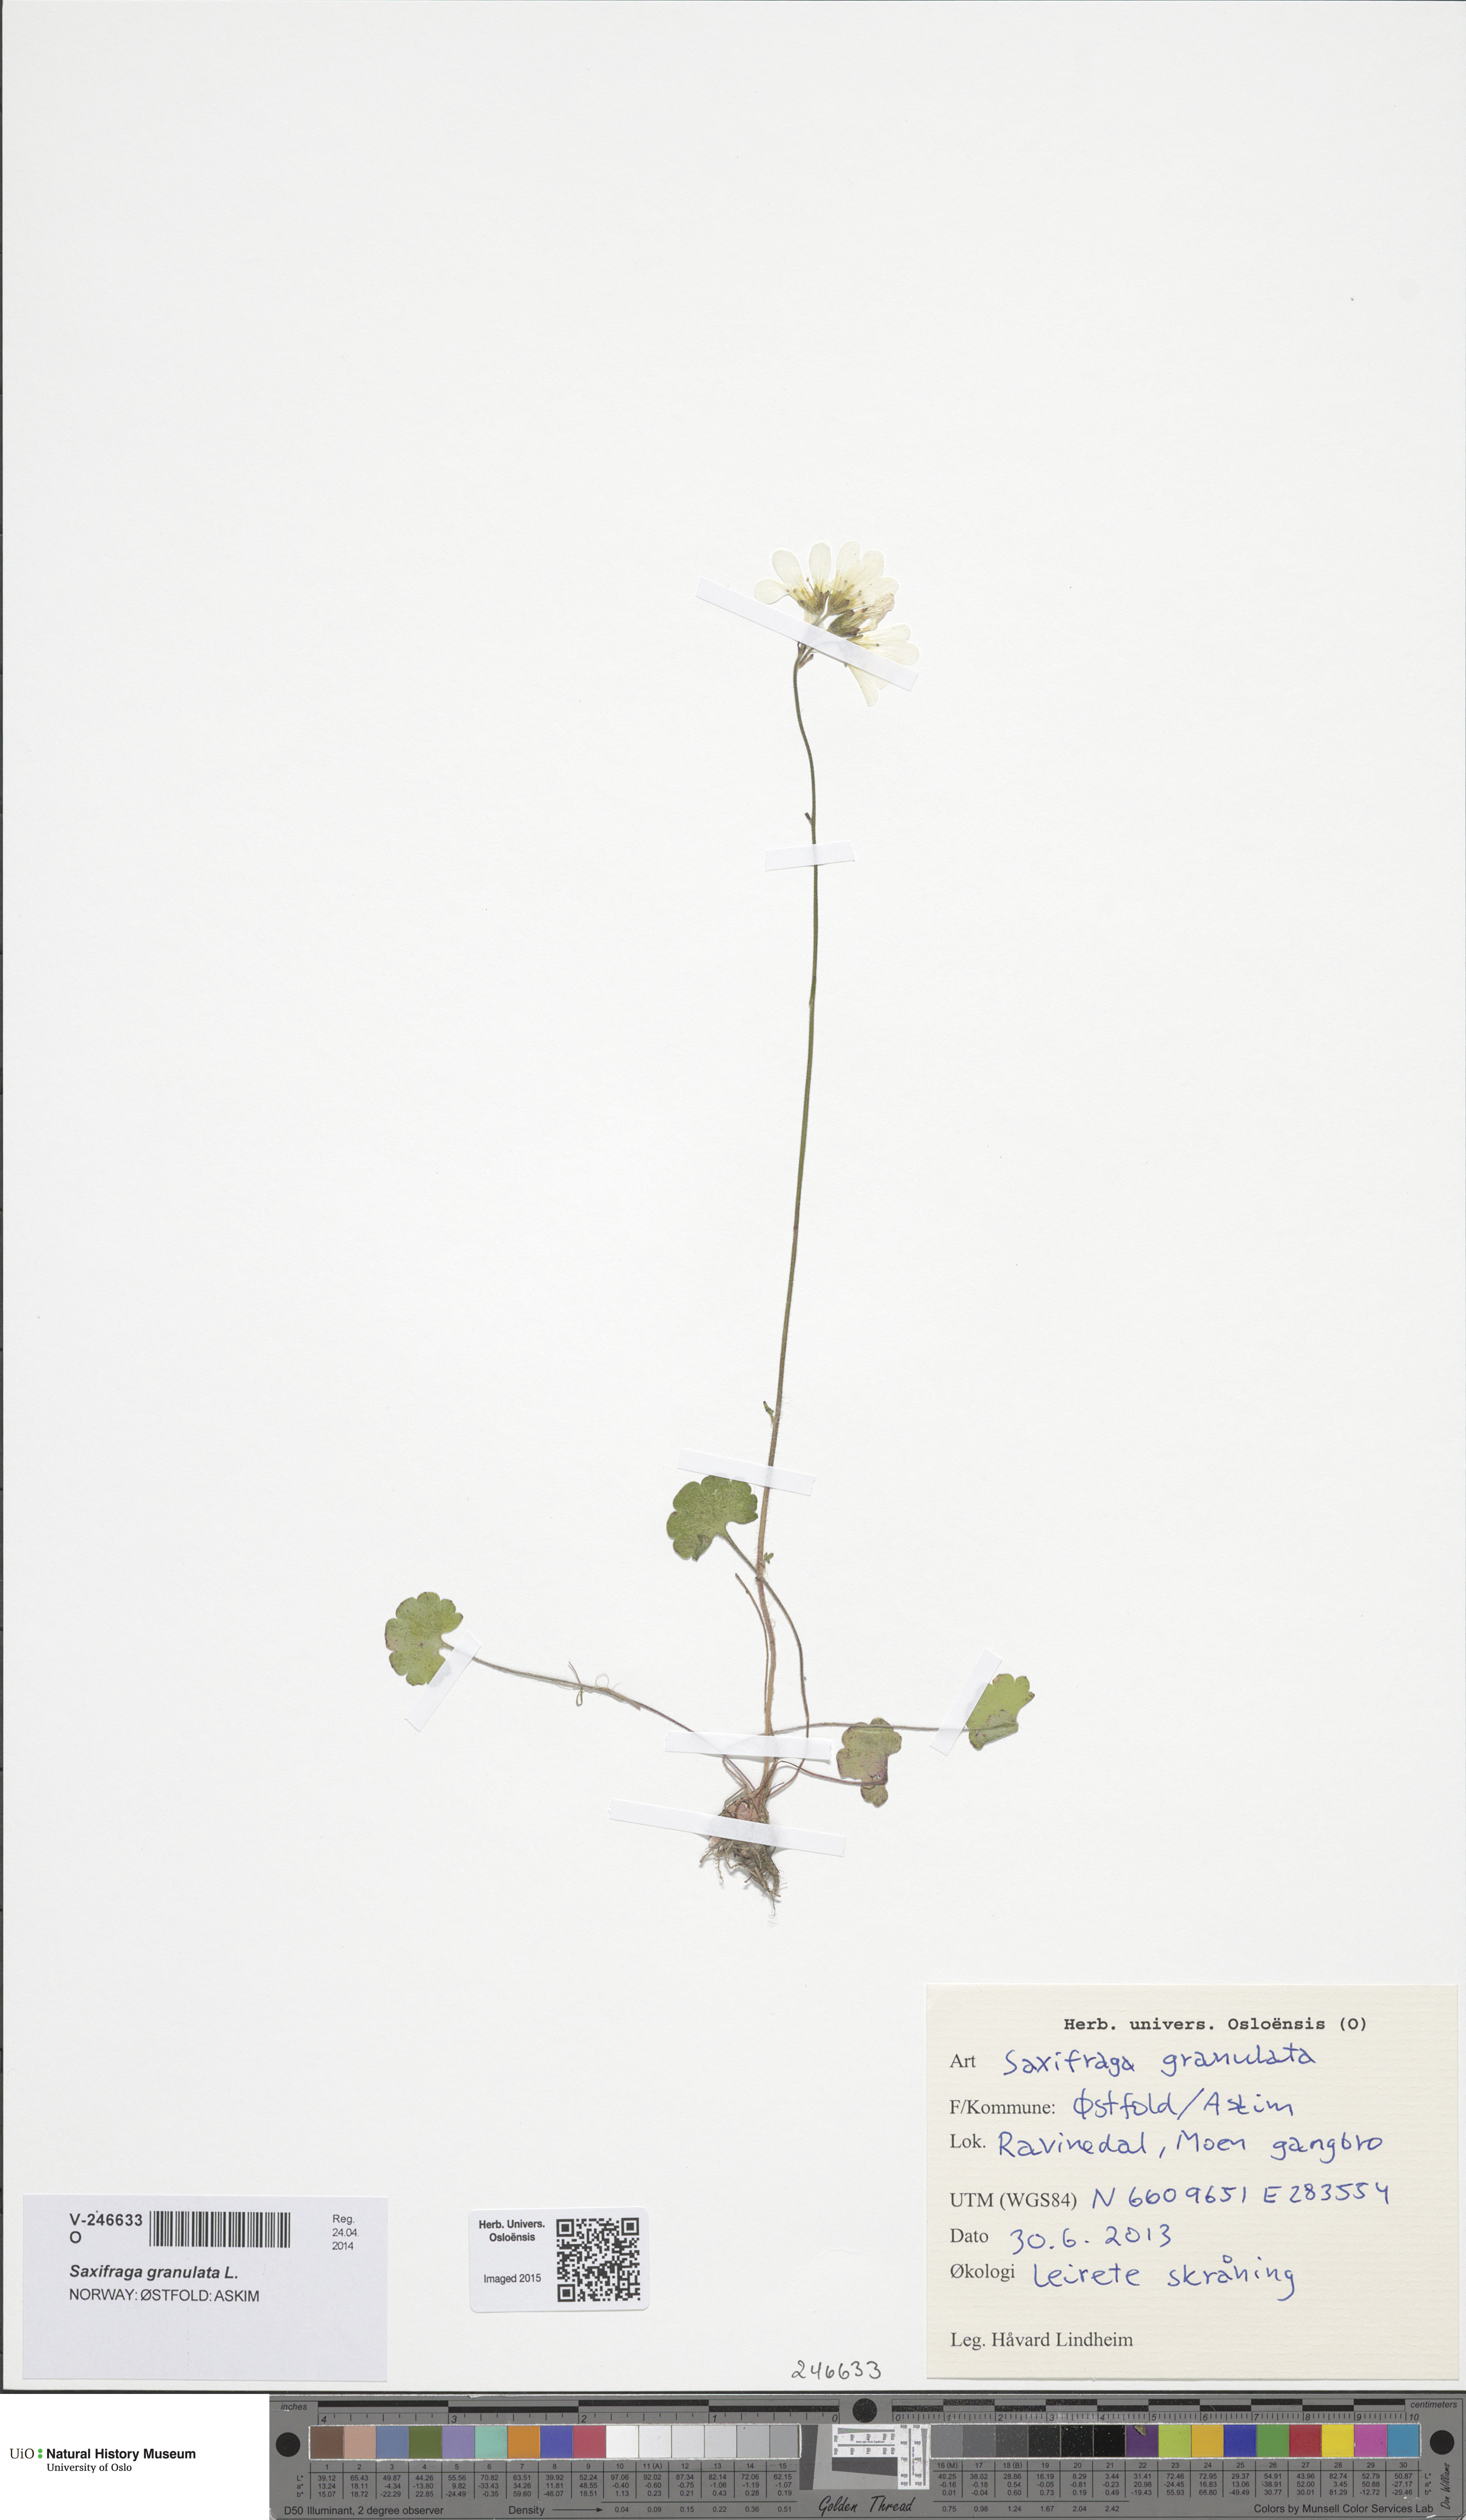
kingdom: Plantae
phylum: Tracheophyta
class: Magnoliopsida
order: Saxifragales
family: Saxifragaceae
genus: Saxifraga
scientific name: Saxifraga granulata
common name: Meadow saxifrage
